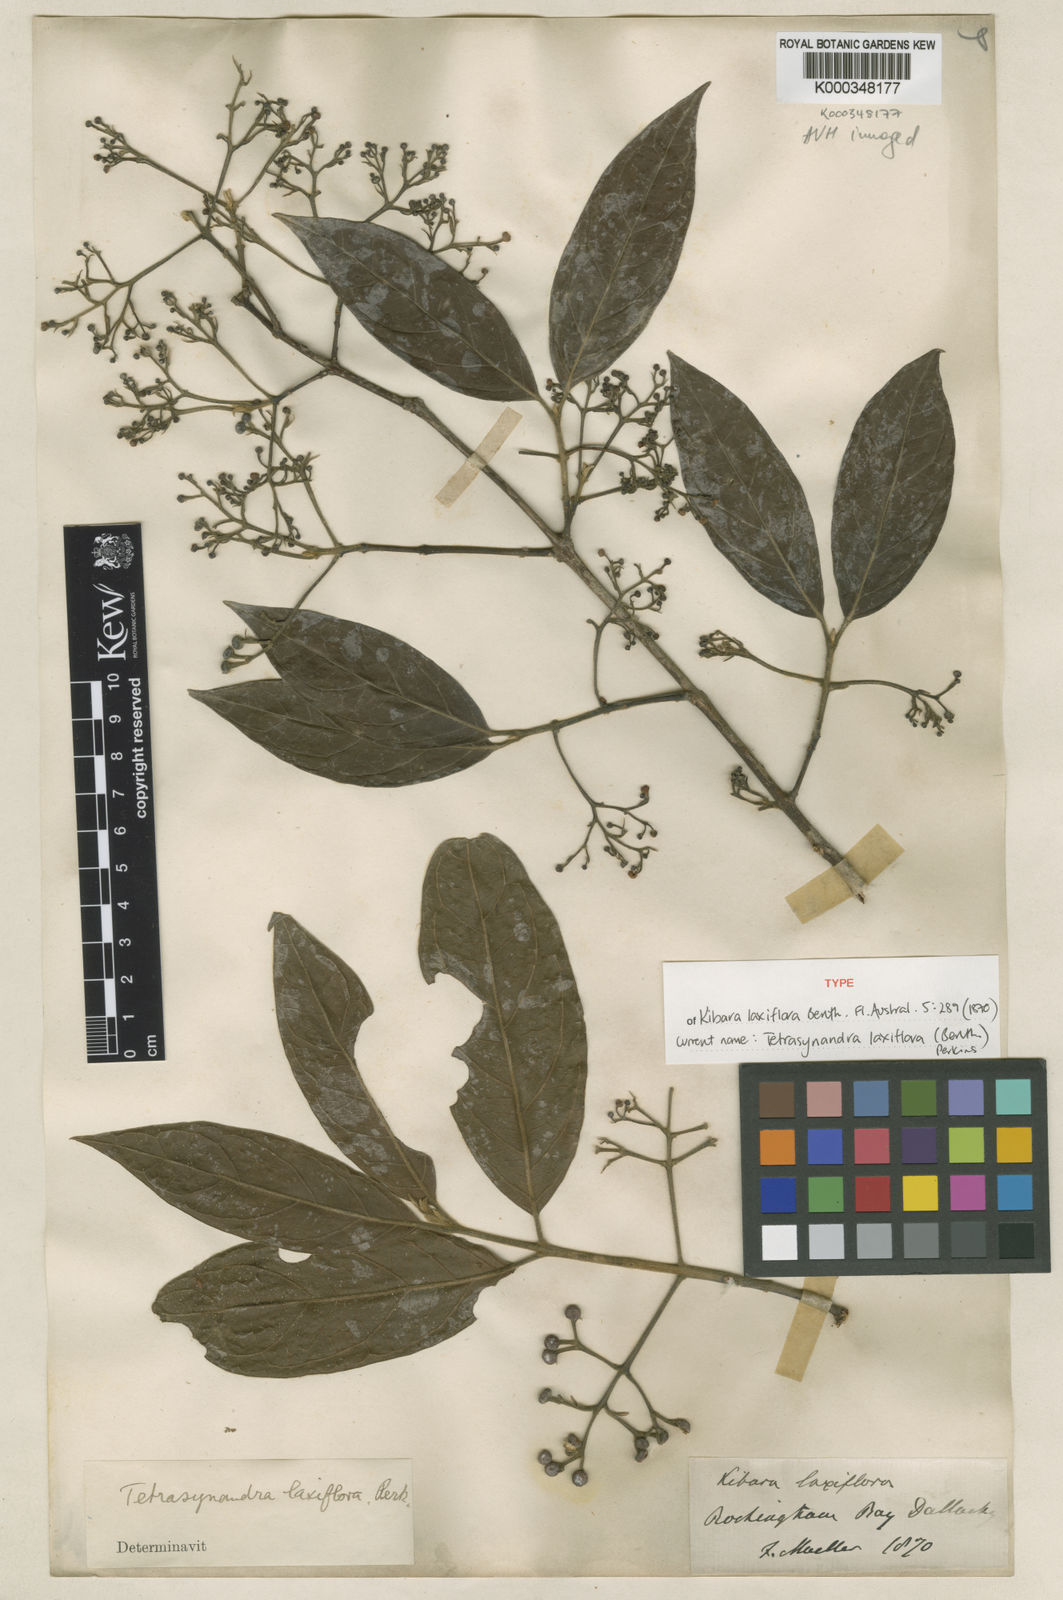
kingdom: Plantae
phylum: Tracheophyta
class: Magnoliopsida
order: Laurales
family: Monimiaceae
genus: Steganthera
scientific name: Steganthera laxiflora
